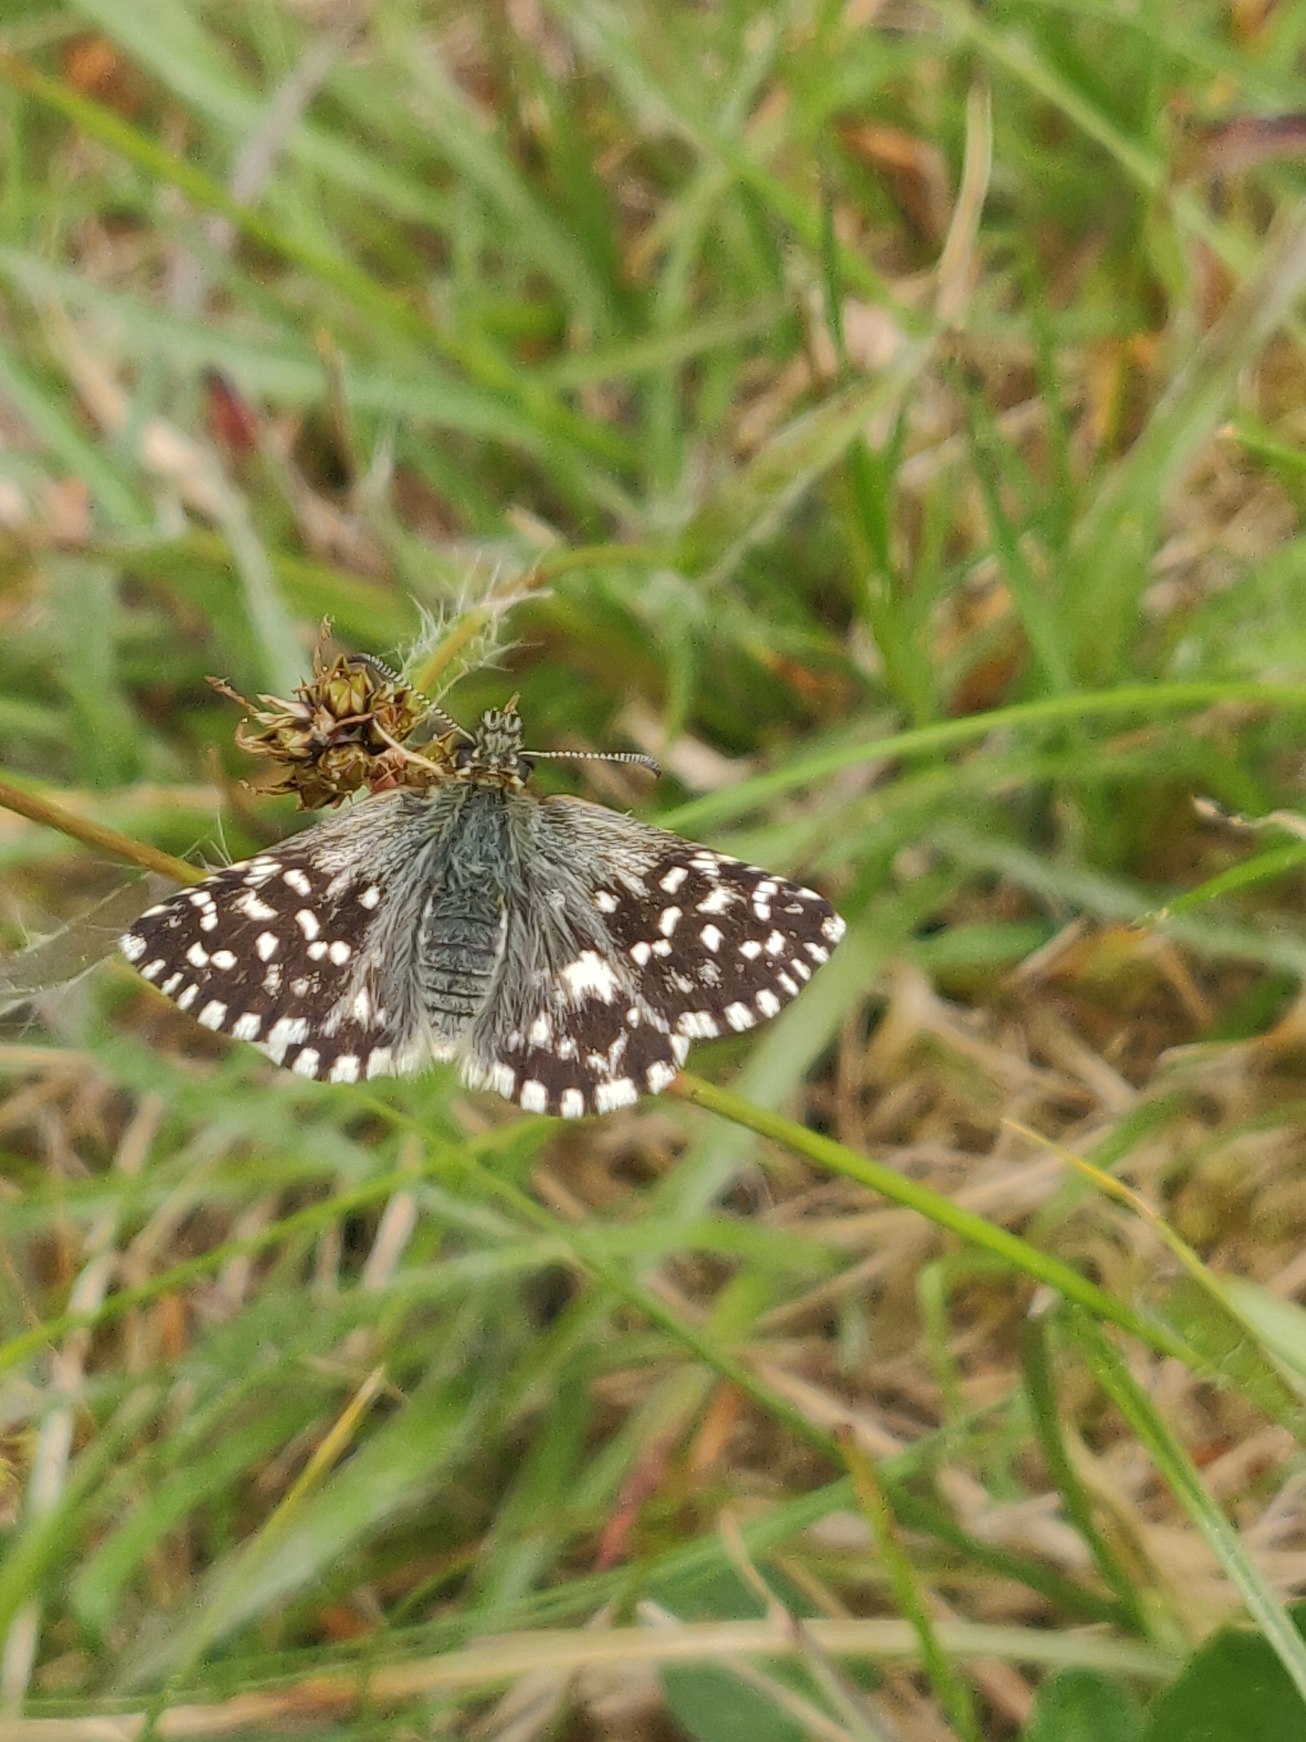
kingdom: Animalia
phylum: Arthropoda
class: Insecta
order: Lepidoptera
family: Hesperiidae
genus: Pyrgus
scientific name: Pyrgus malvae
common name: Spættet bredpande
